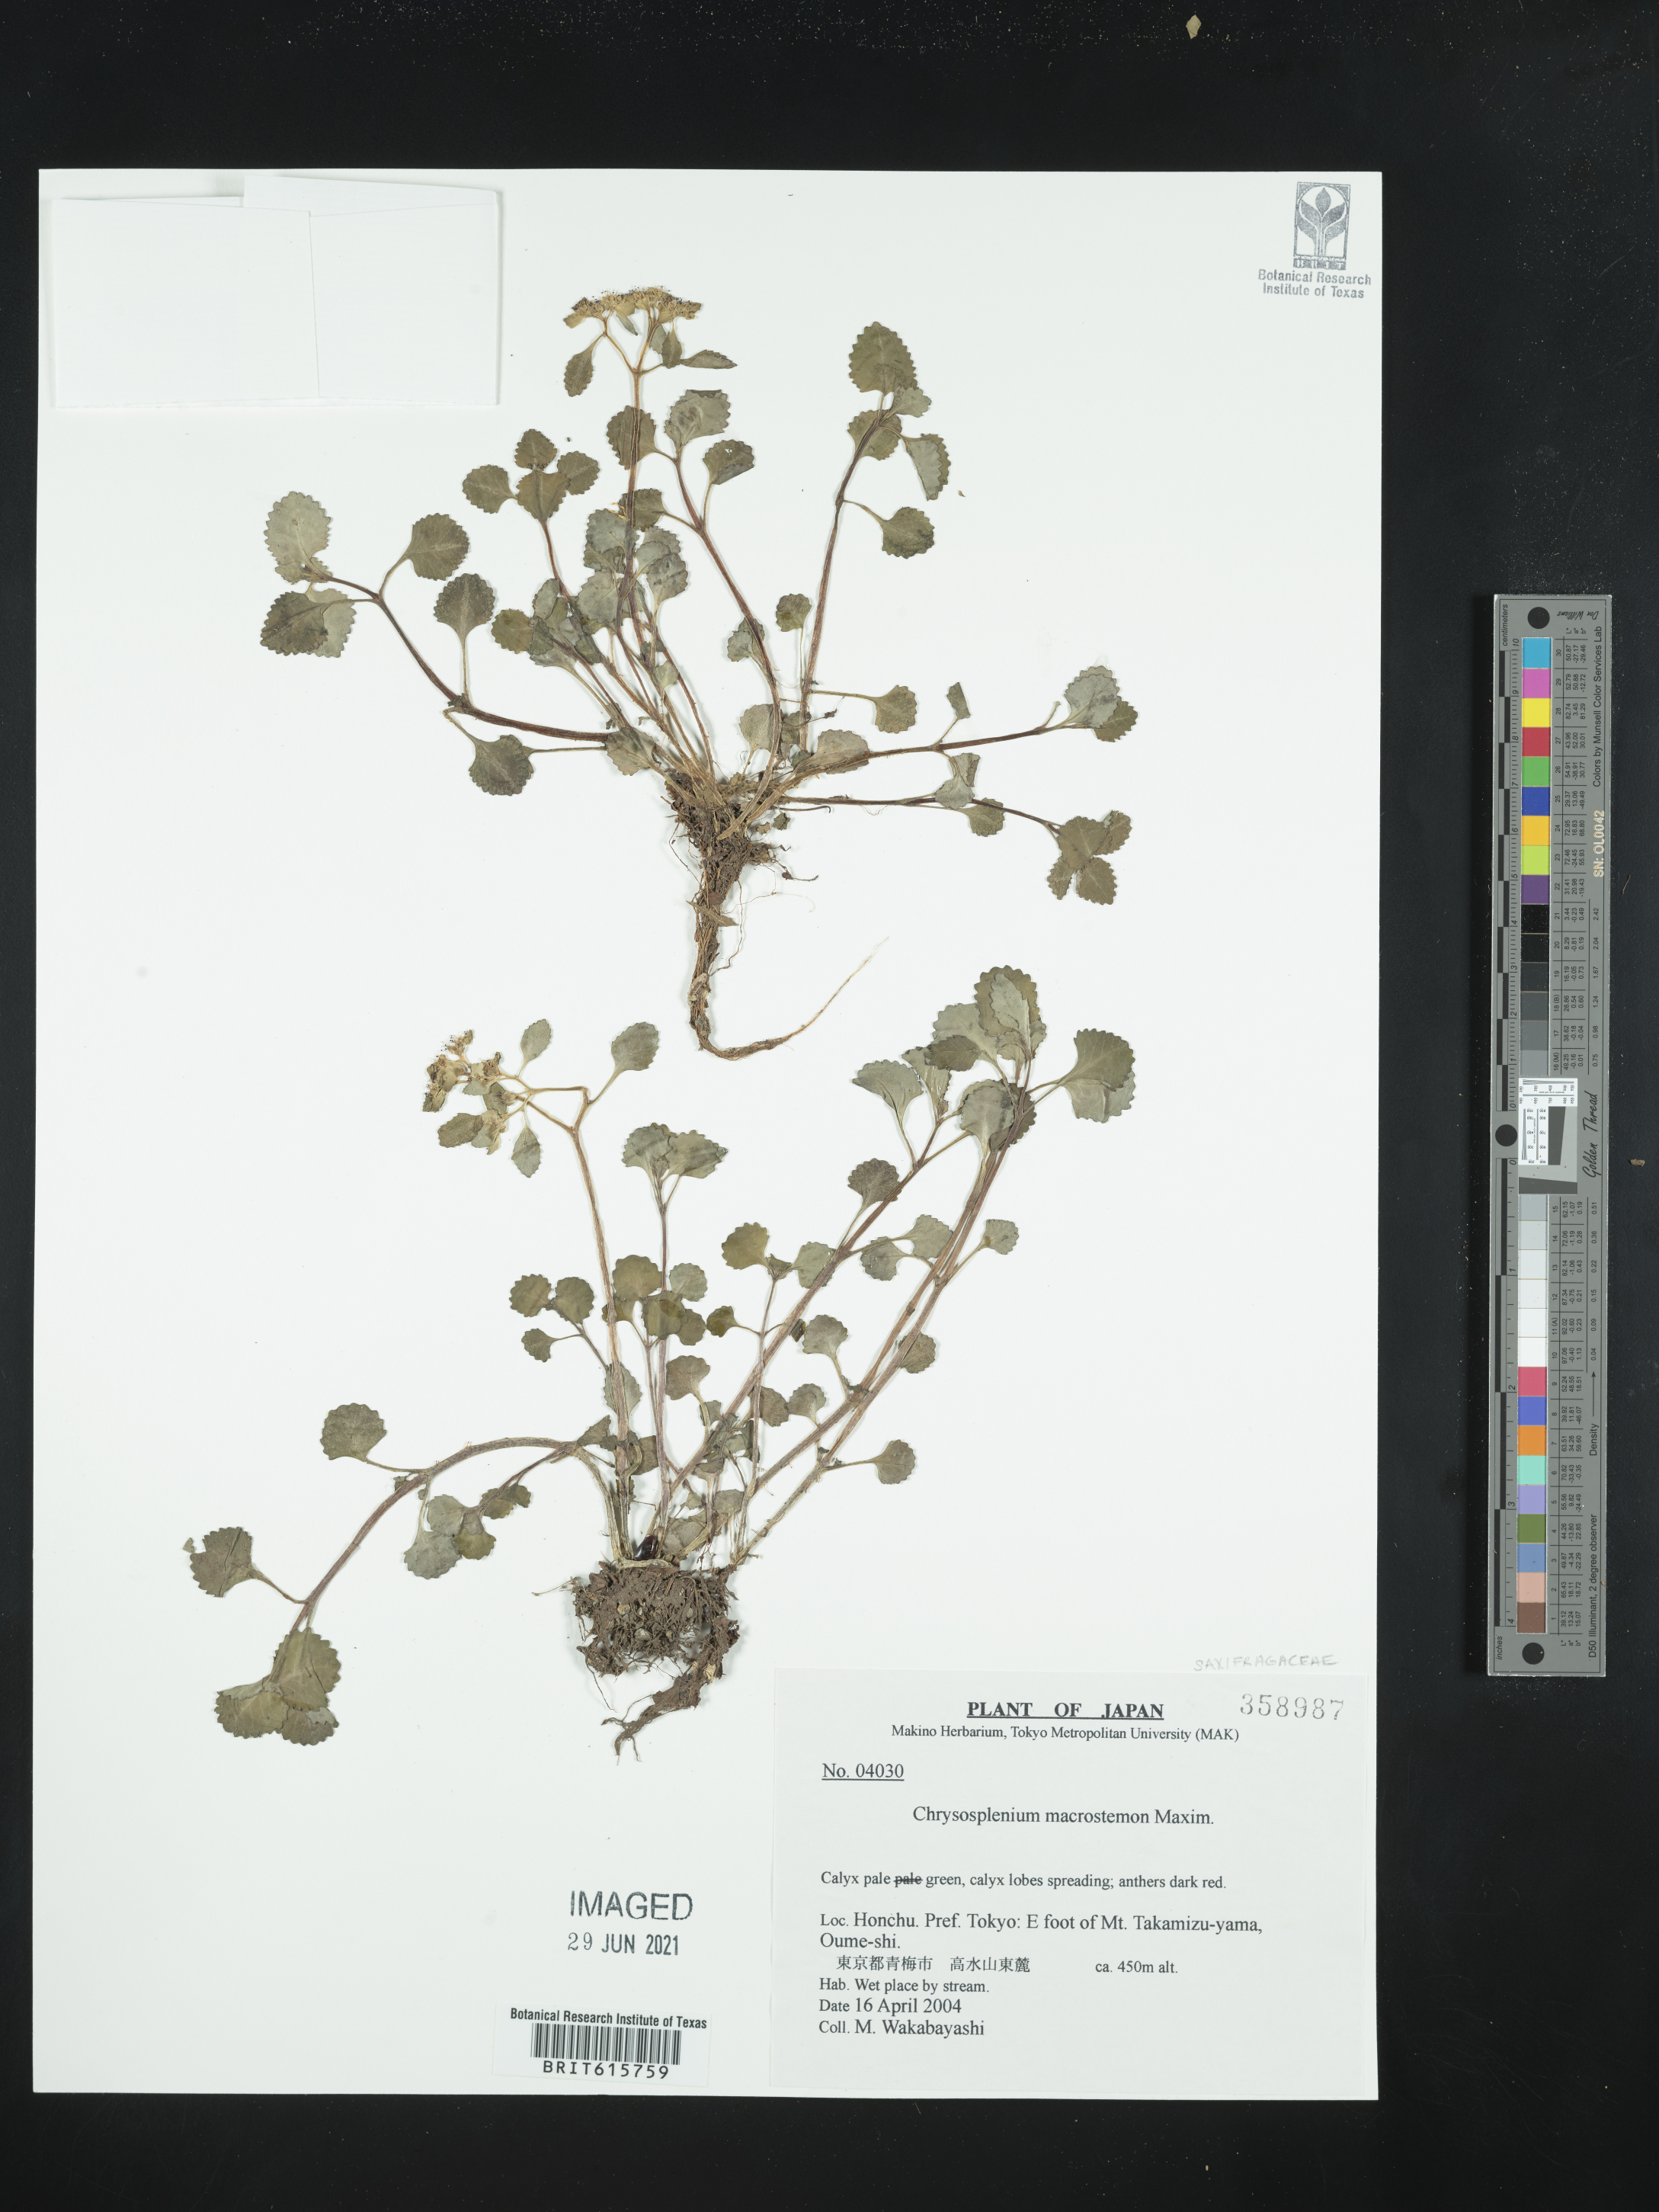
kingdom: Plantae
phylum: Tracheophyta
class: Magnoliopsida
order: Saxifragales
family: Saxifragaceae
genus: Chrysosplenium
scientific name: Chrysosplenium macrostemon
